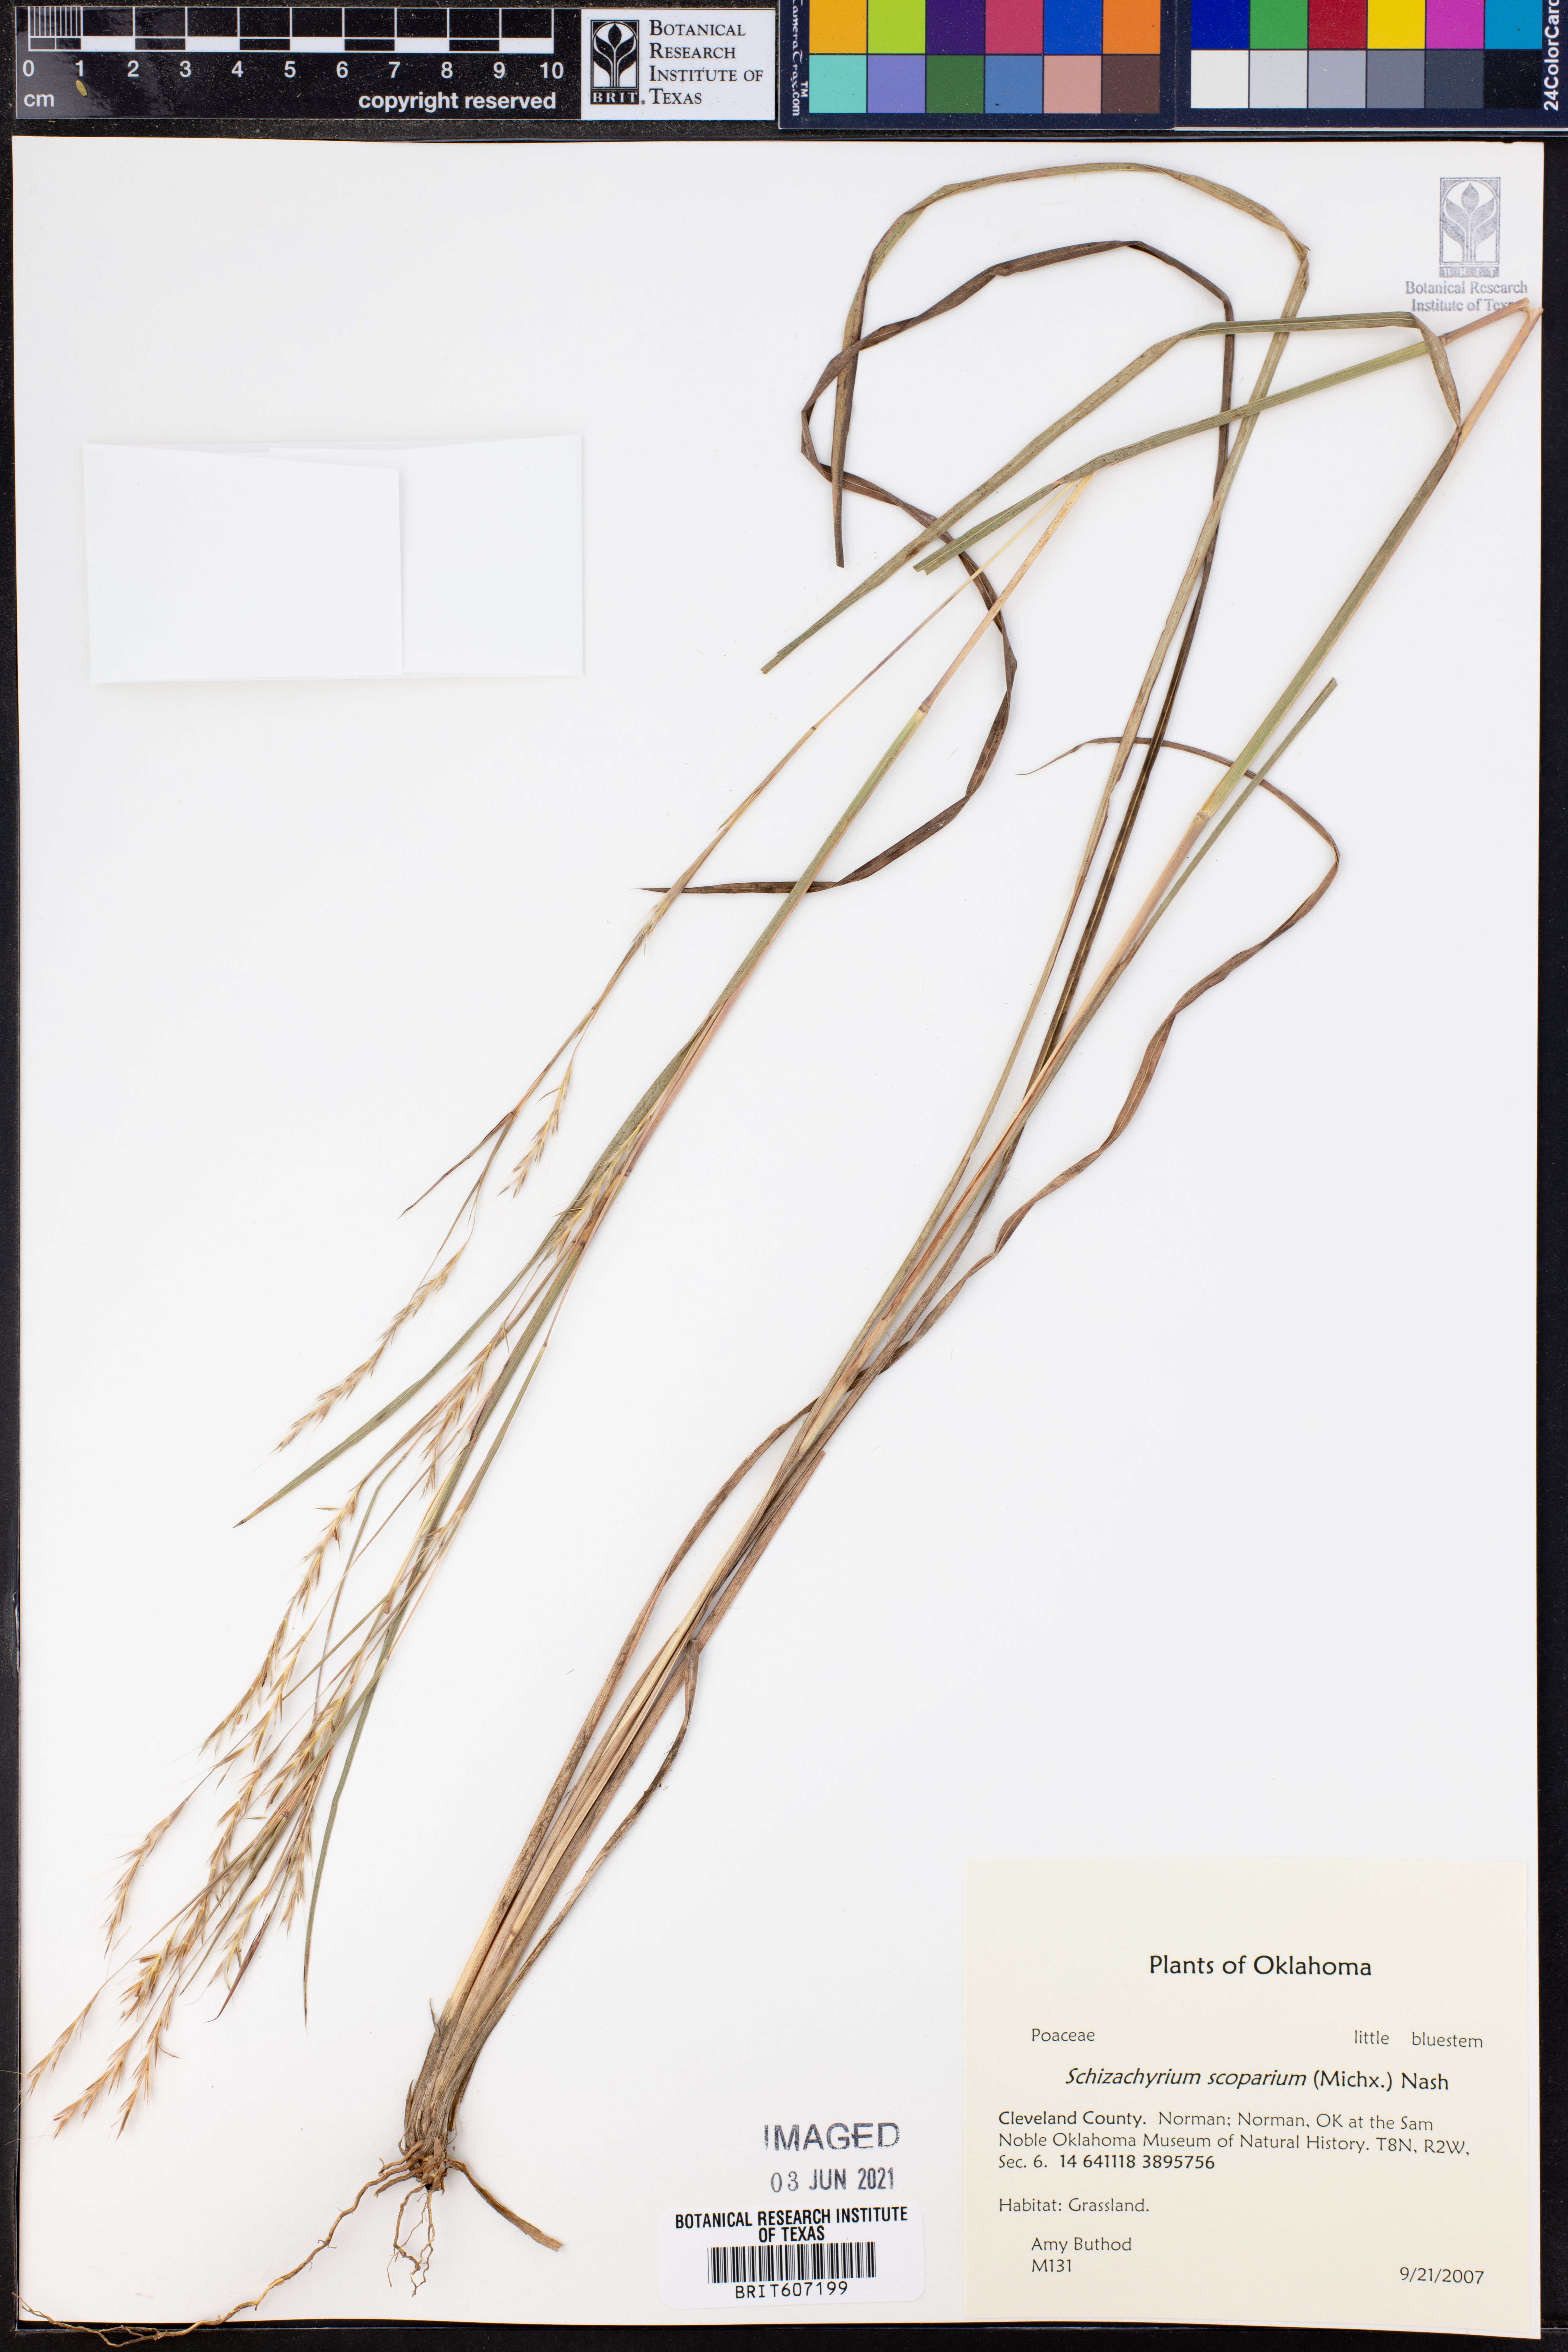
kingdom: Plantae
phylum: Tracheophyta
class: Liliopsida
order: Poales
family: Poaceae
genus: Schizachyrium
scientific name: Schizachyrium
